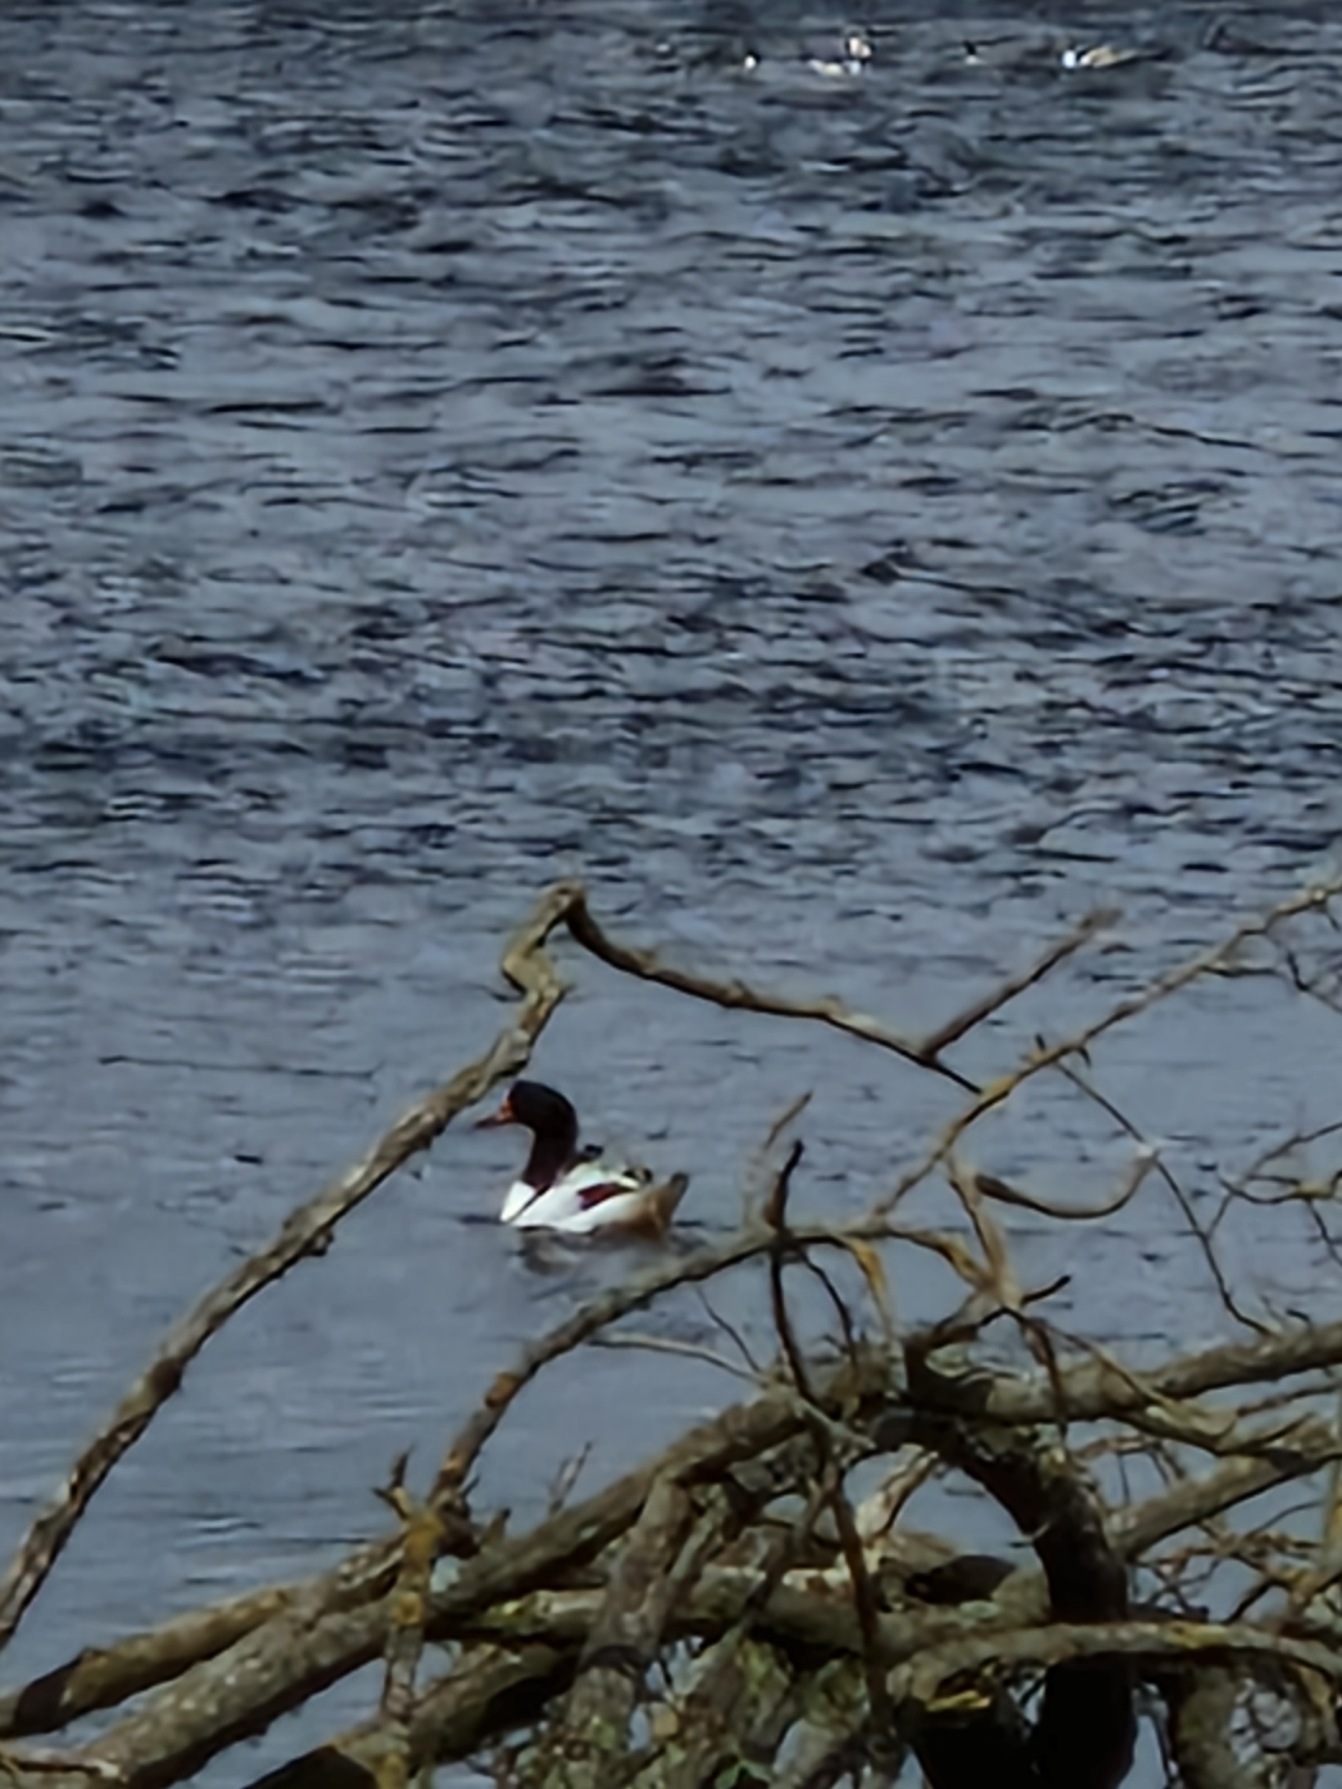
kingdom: Animalia
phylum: Chordata
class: Aves
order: Anseriformes
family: Anatidae
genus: Tadorna
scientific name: Tadorna tadorna
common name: Gravand
